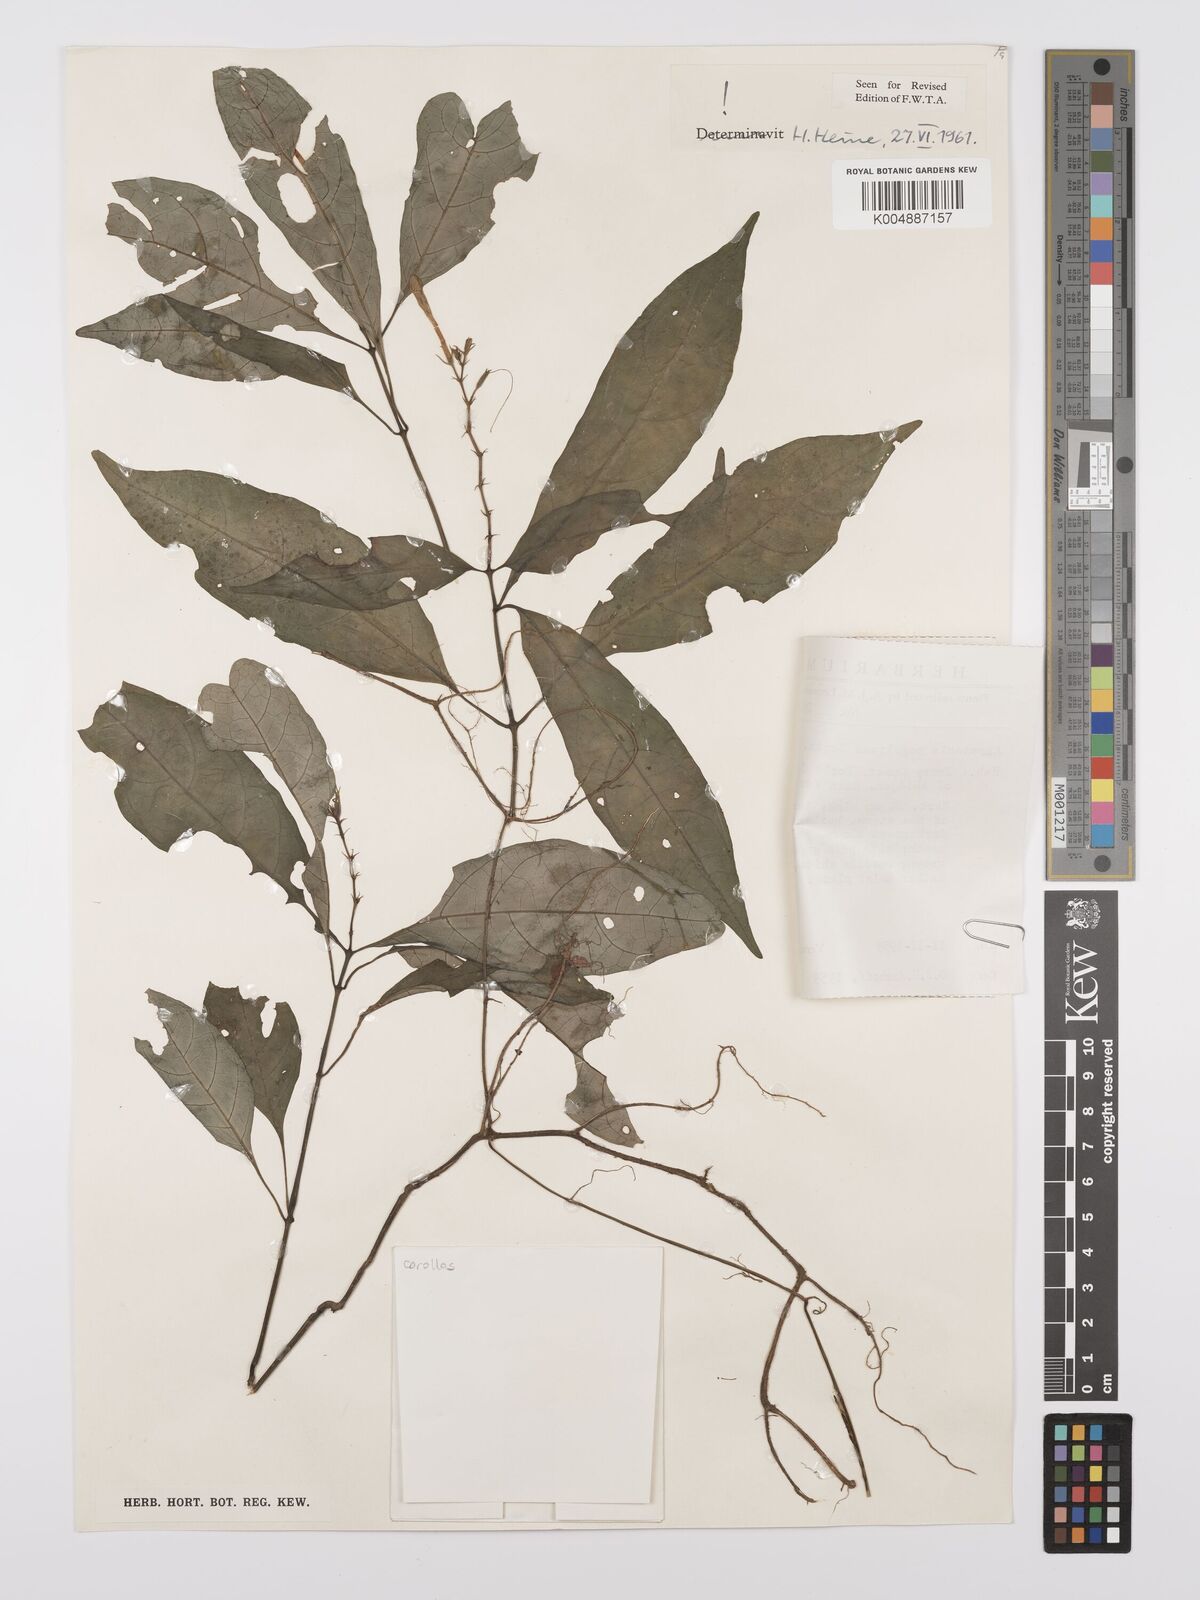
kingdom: Plantae
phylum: Tracheophyta
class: Magnoliopsida
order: Lamiales
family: Acanthaceae
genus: Asystasia
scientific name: Asystasia vogeliana
